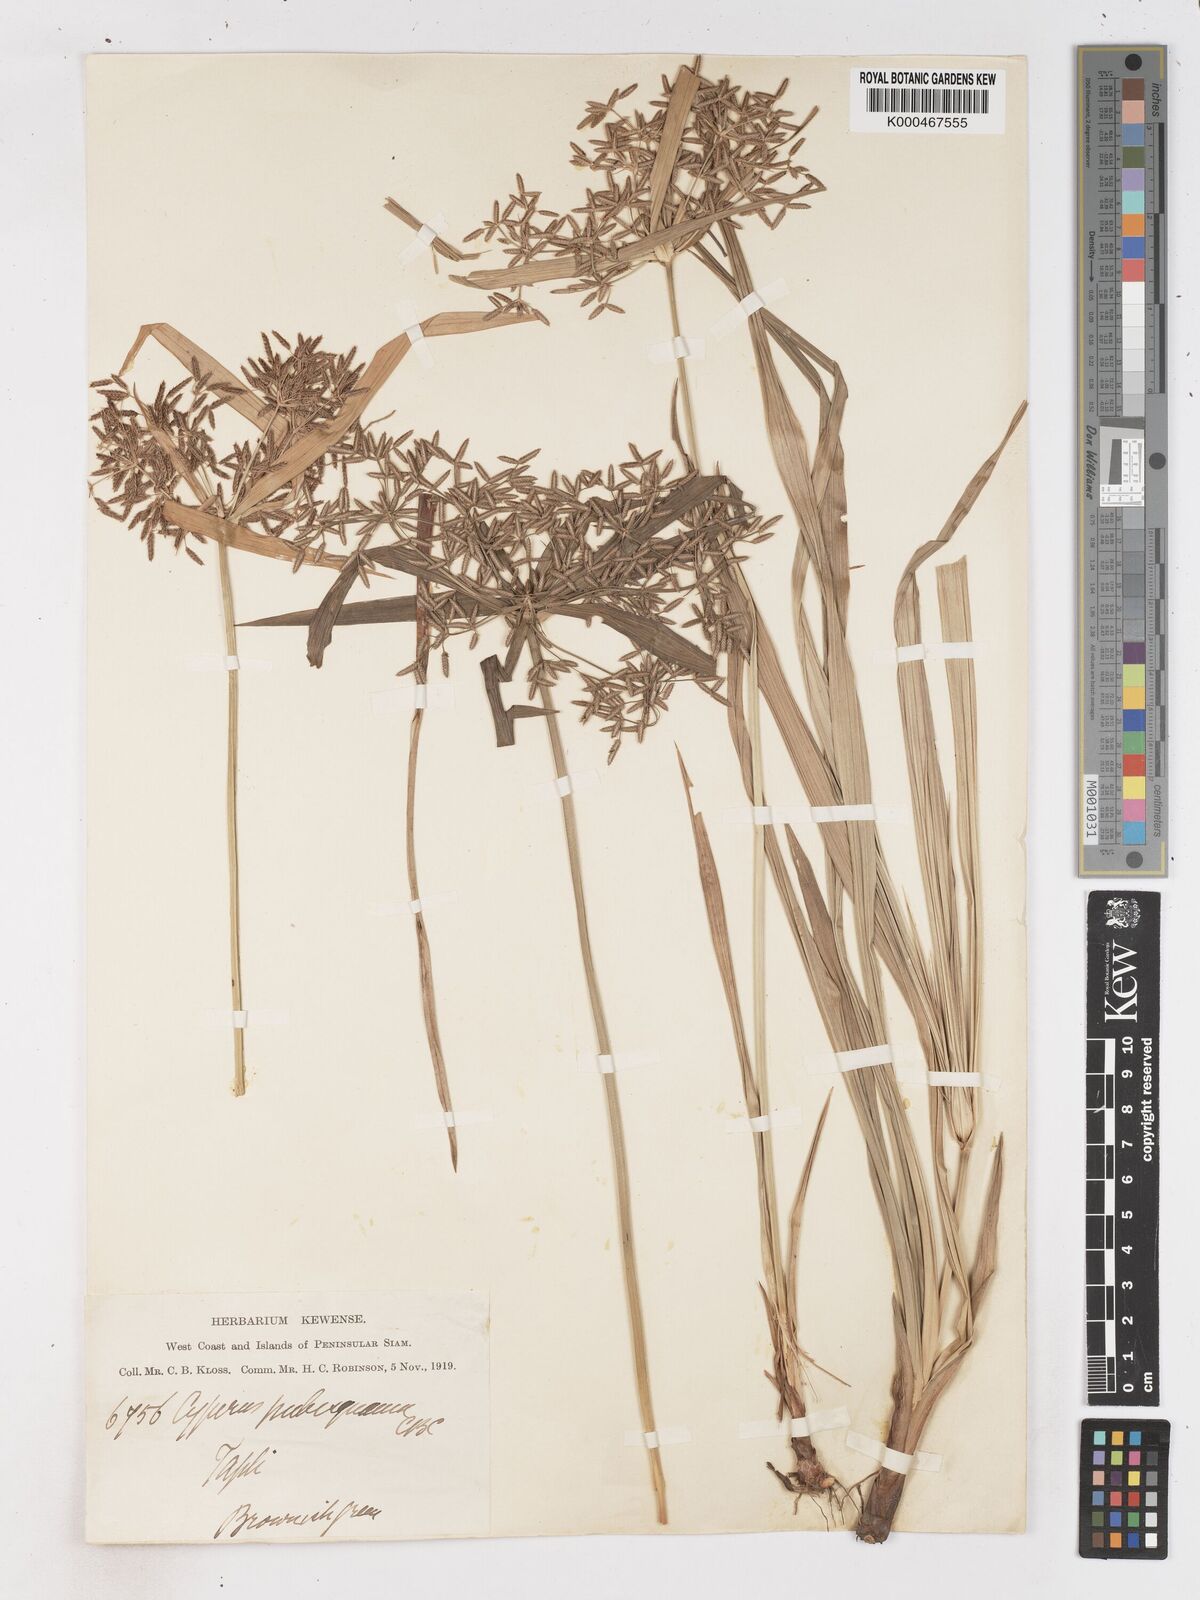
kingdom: Plantae
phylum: Tracheophyta
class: Liliopsida
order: Poales
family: Cyperaceae
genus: Cyperus
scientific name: Cyperus diffusus
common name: Dwarf umbrella grass
